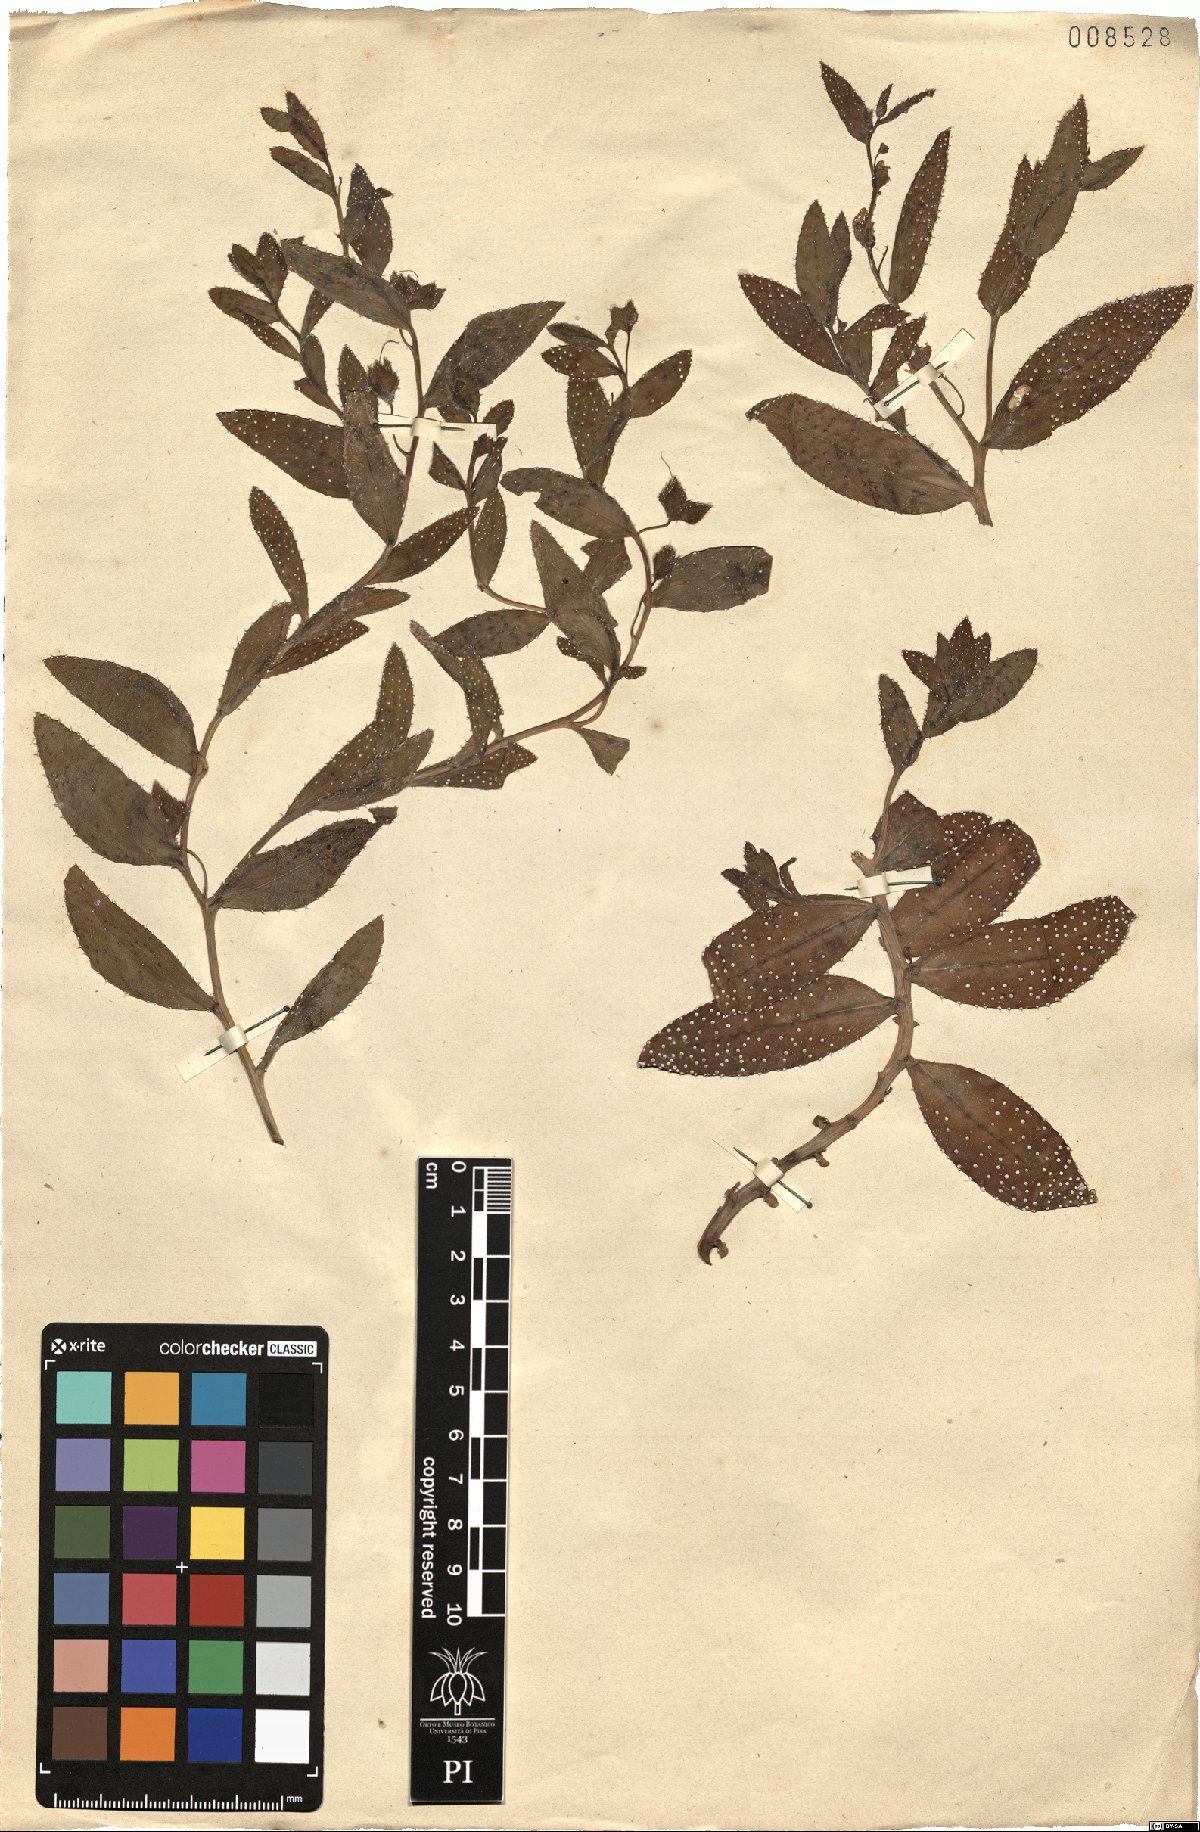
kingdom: Plantae
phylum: Tracheophyta
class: Magnoliopsida
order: Boraginales
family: Boraginaceae
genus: Caccinia
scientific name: Caccinia macranthera
